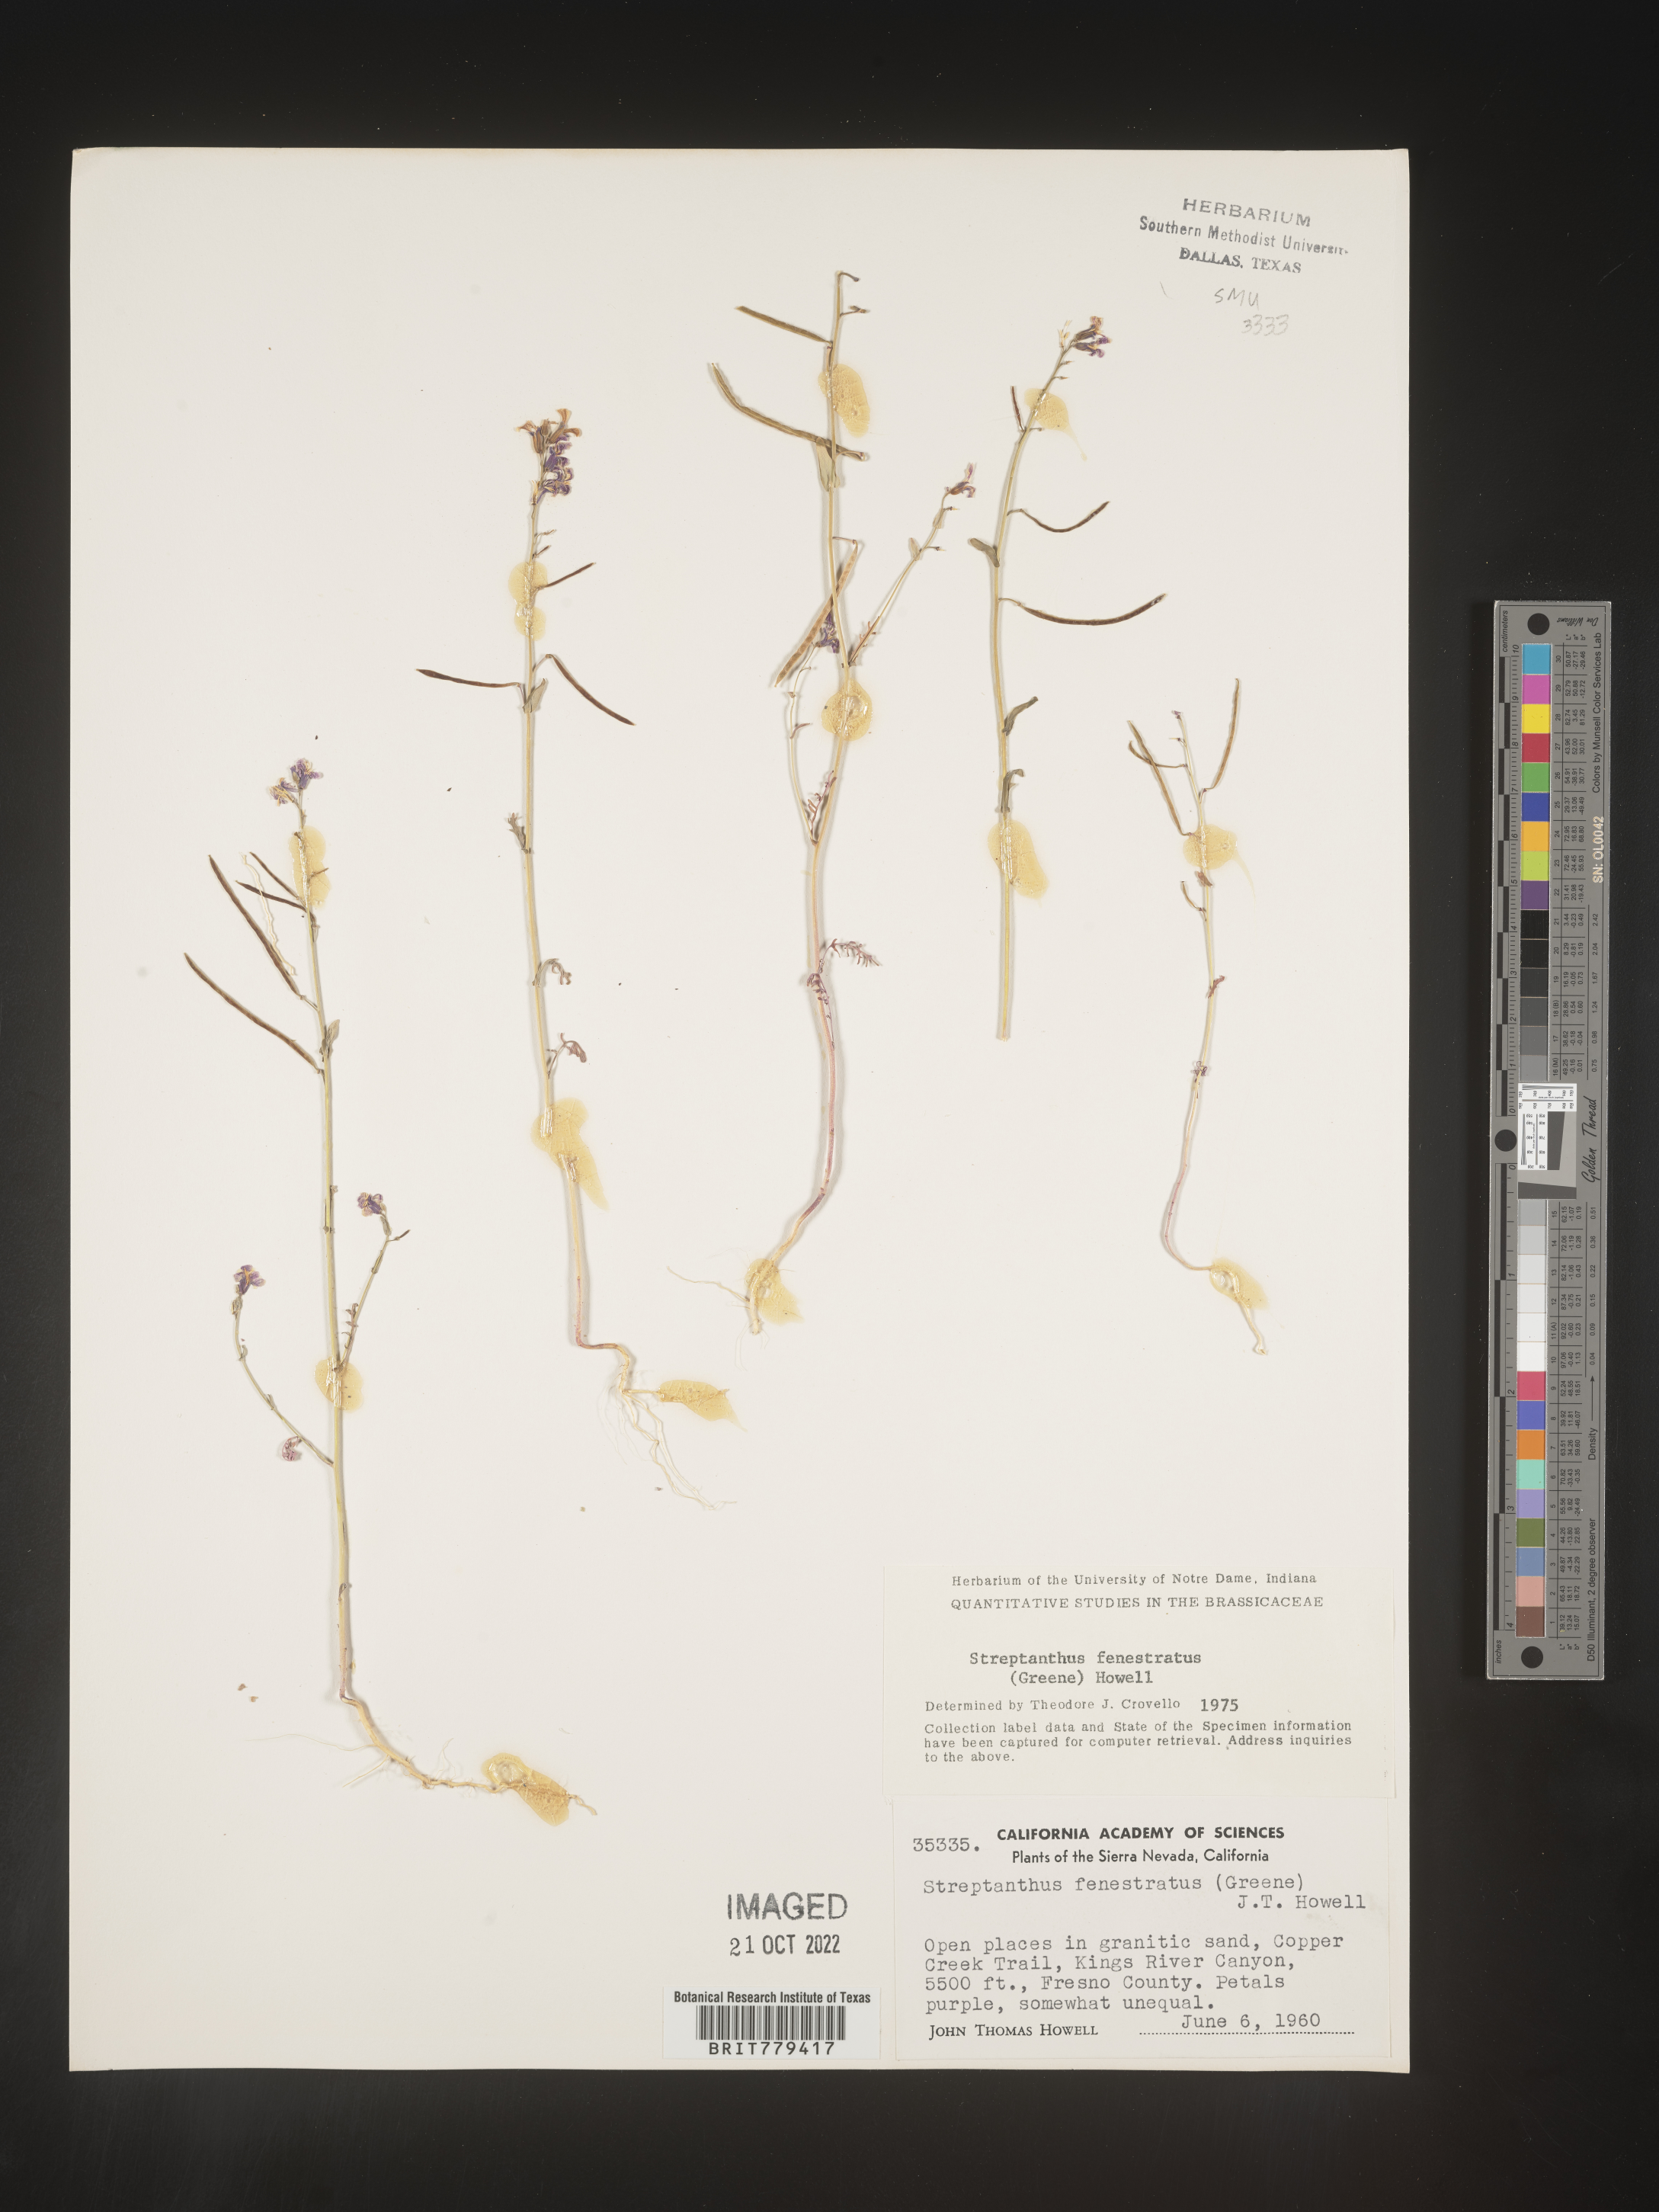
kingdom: Plantae
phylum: Tracheophyta
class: Magnoliopsida
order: Brassicales
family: Brassicaceae
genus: Streptanthus
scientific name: Streptanthus
